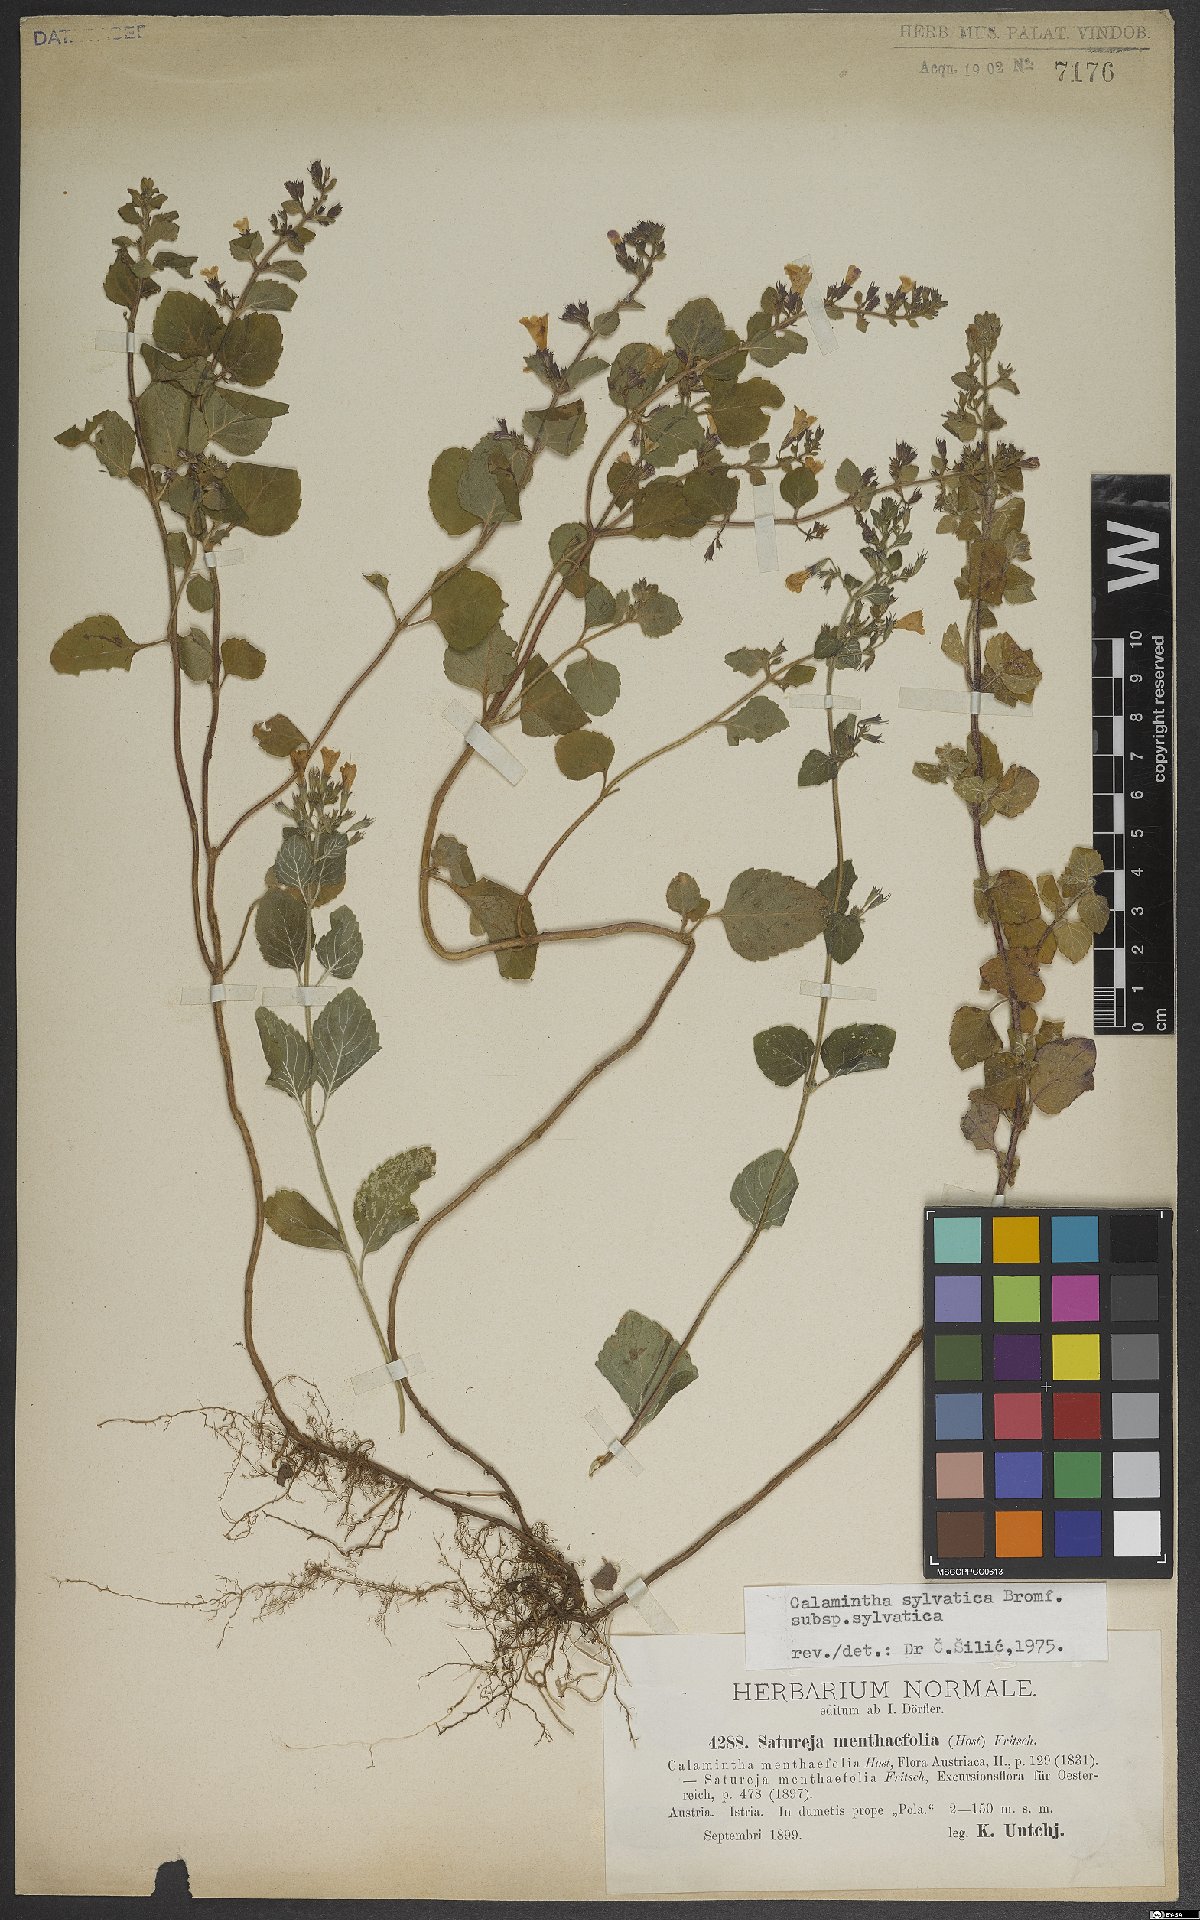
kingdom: Plantae
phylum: Tracheophyta
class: Magnoliopsida
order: Lamiales
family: Lamiaceae
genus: Clinopodium
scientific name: Clinopodium menthifolium
